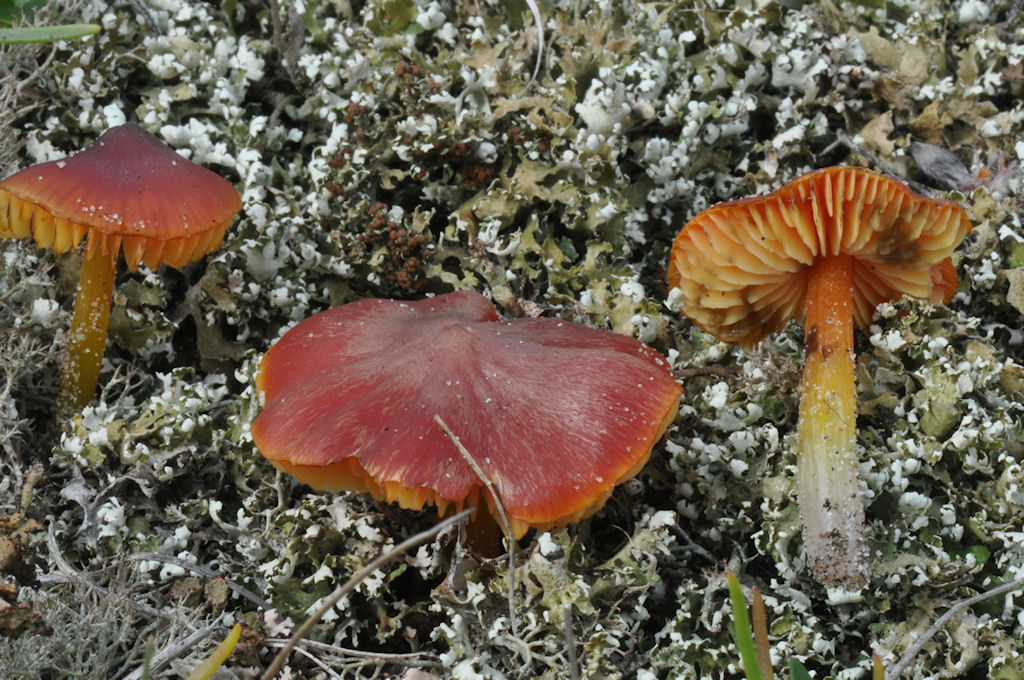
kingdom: Fungi
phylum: Basidiomycota
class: Agaricomycetes
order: Agaricales
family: Hygrophoraceae
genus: Hygrocybe
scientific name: Hygrocybe conicoides
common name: klit-vokshat
